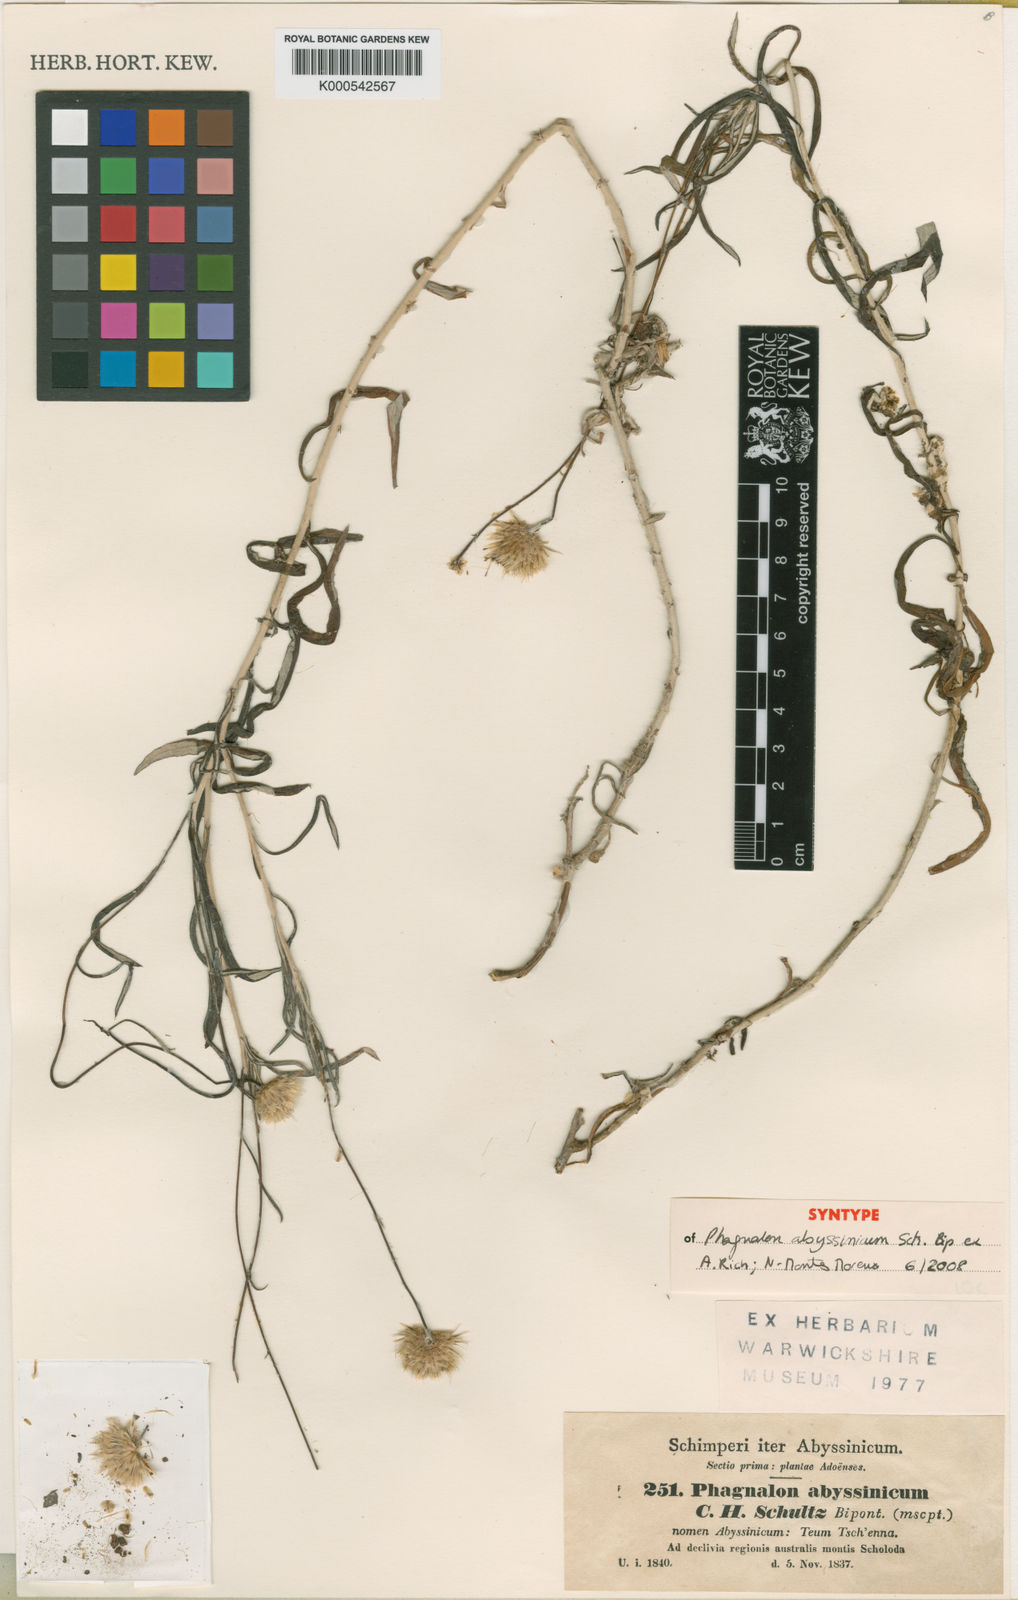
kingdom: Plantae
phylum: Tracheophyta
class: Magnoliopsida
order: Asterales
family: Asteraceae
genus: Phagnalon
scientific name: Phagnalon
